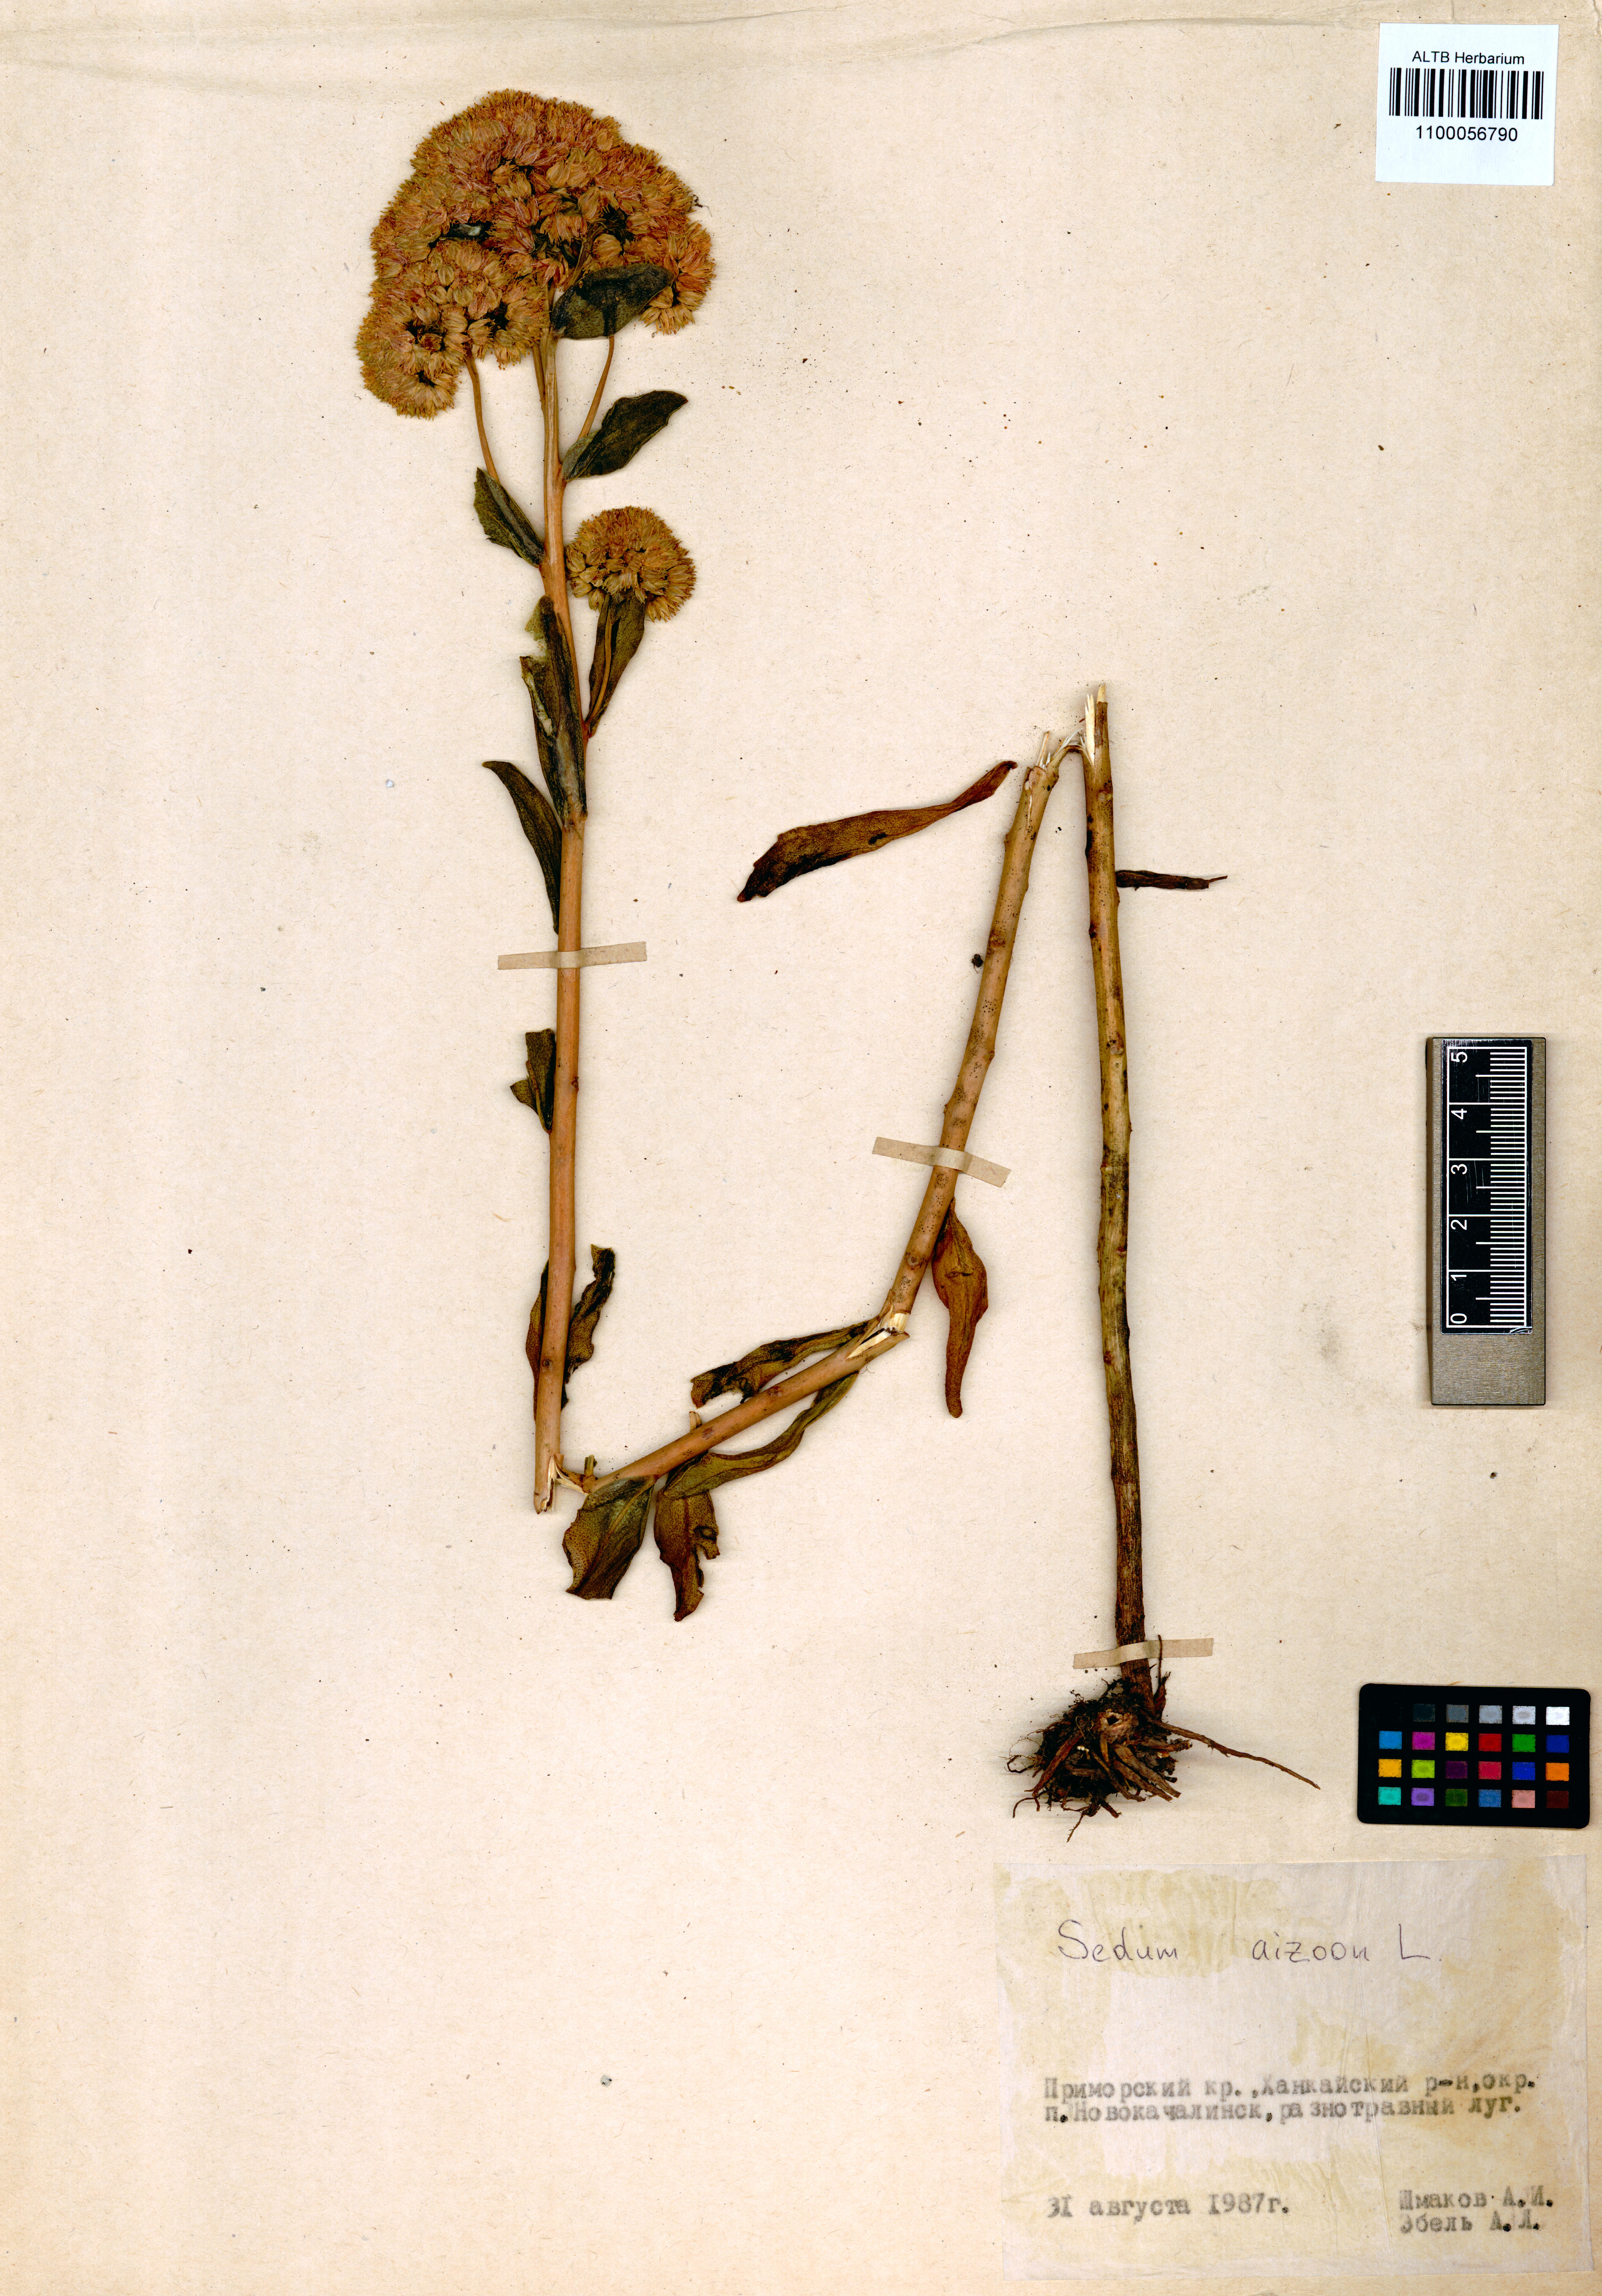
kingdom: Plantae
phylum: Tracheophyta
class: Magnoliopsida
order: Saxifragales
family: Crassulaceae
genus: Phedimus
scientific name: Phedimus aizoon
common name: Orpin aizoon
